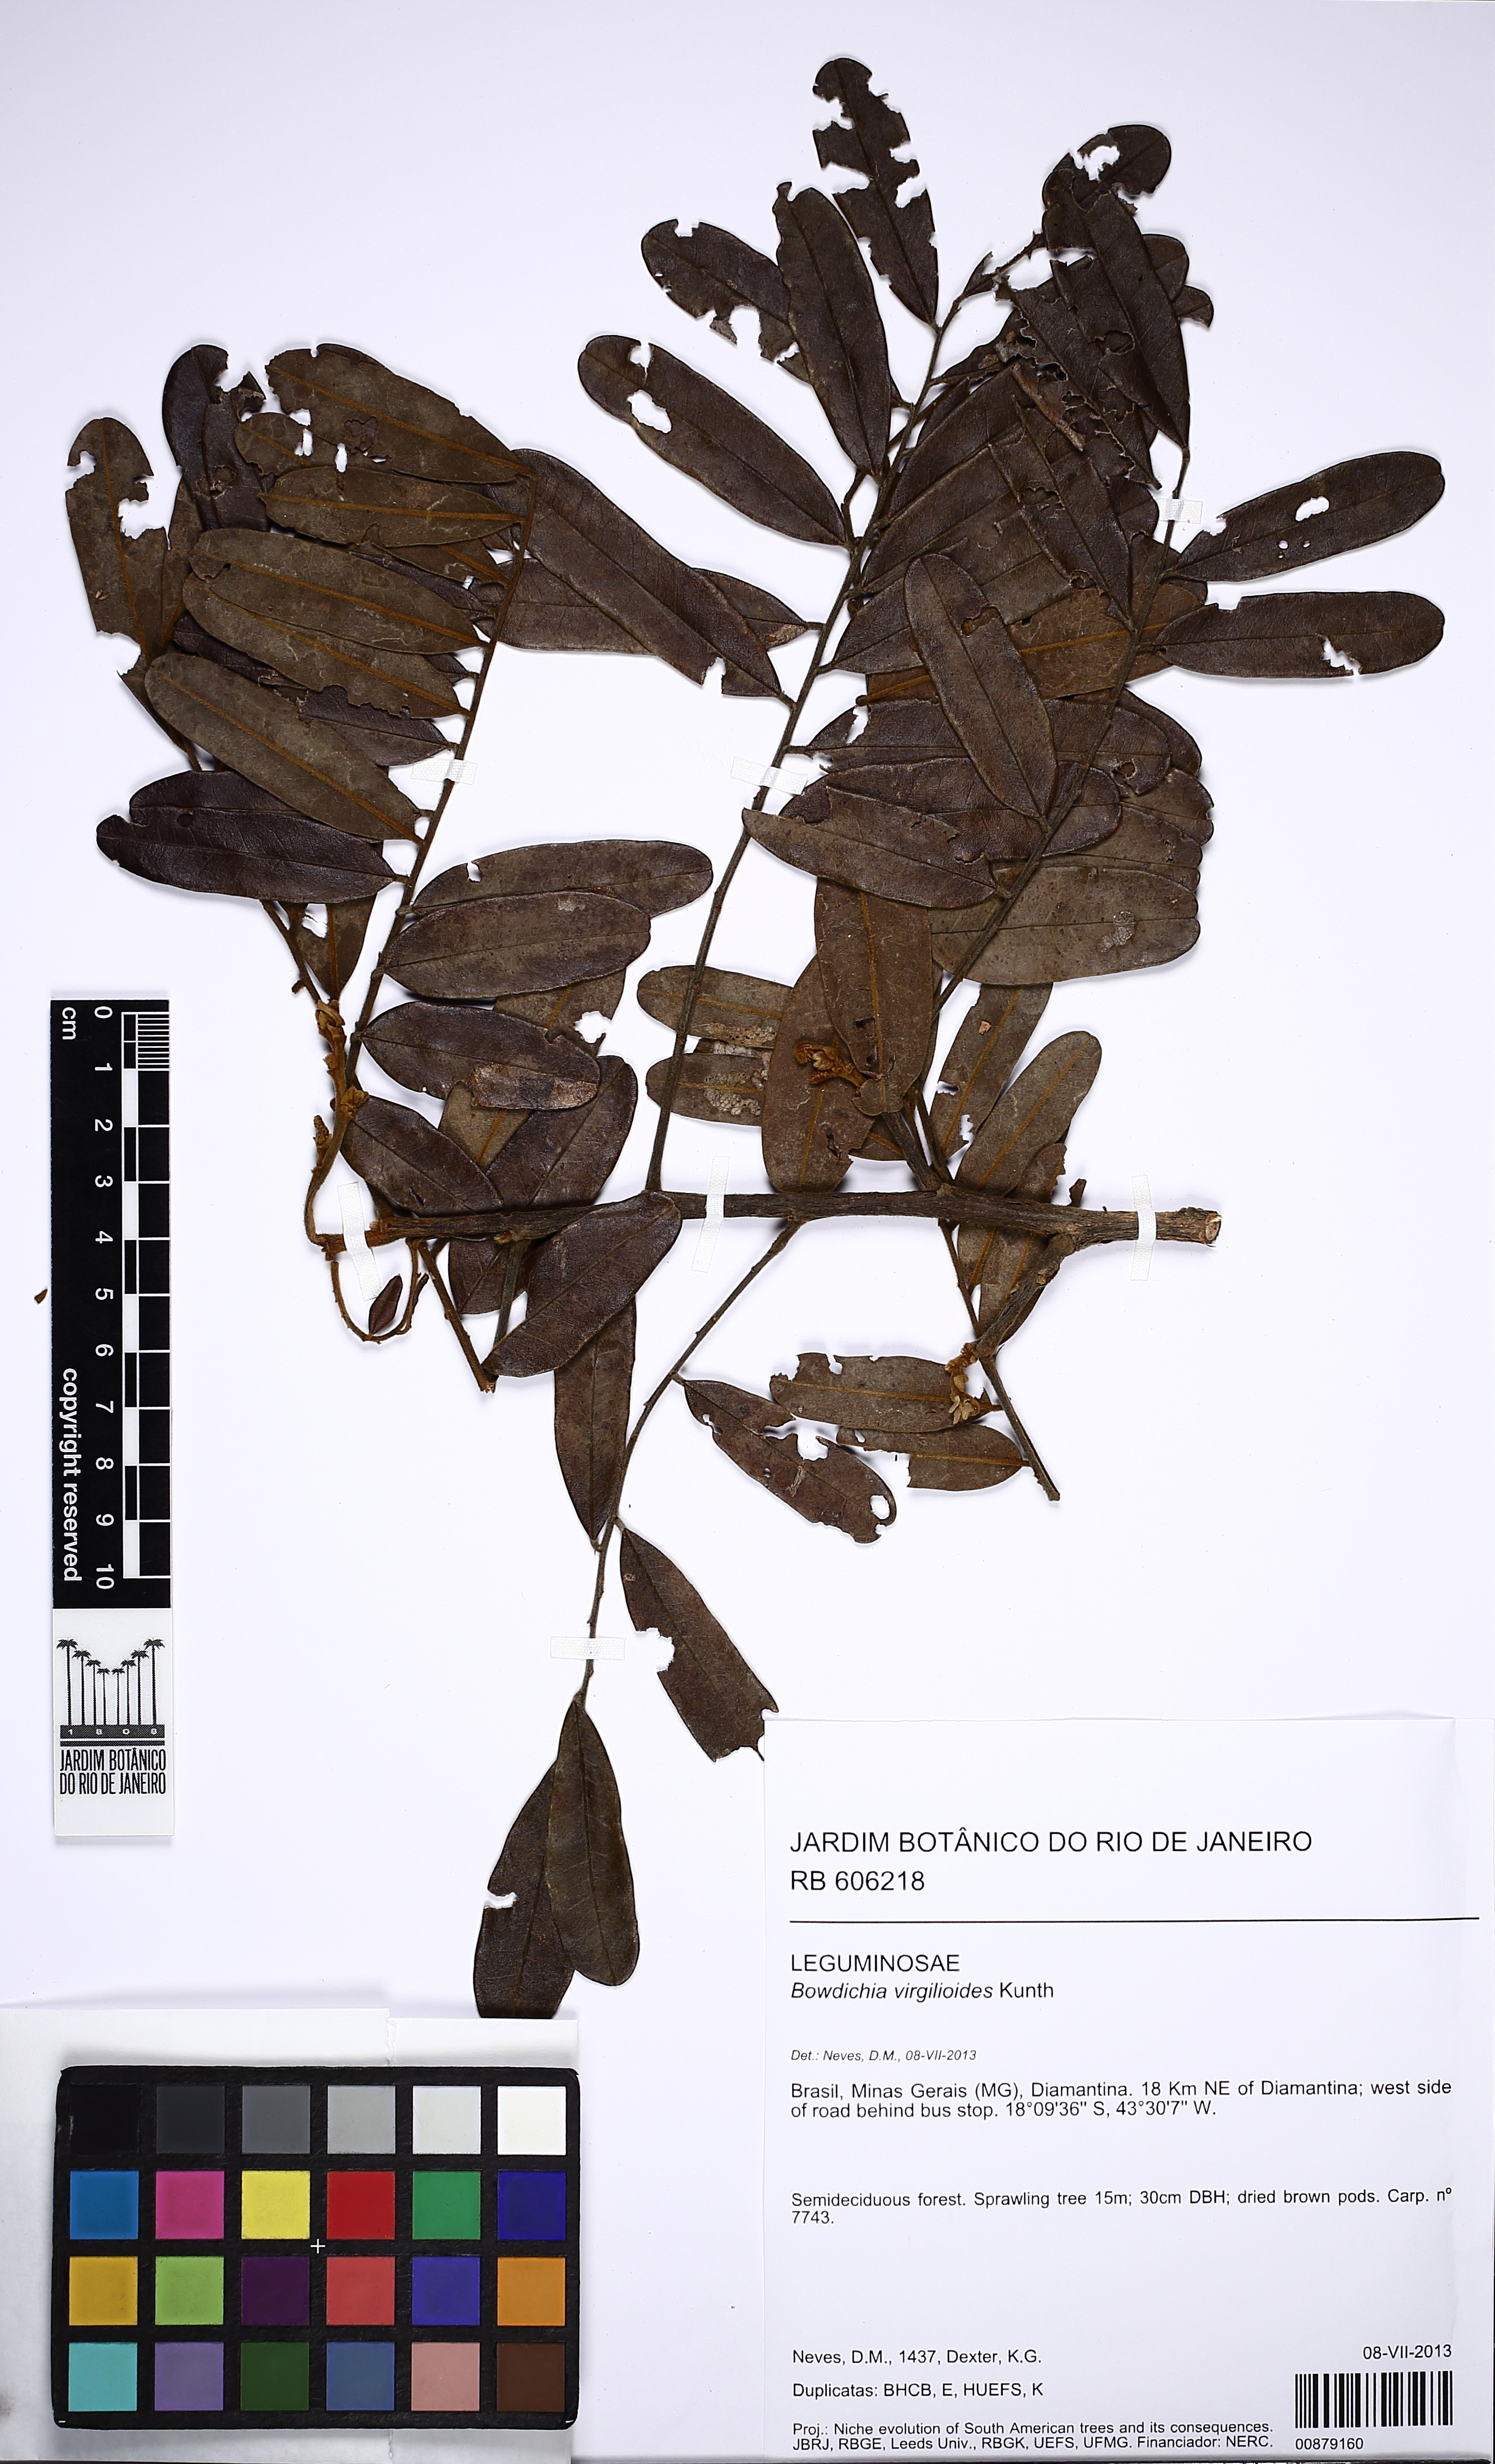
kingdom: Plantae
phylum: Tracheophyta
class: Magnoliopsida
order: Fabales
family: Fabaceae
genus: Bowdichia
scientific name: Bowdichia virgilioides
